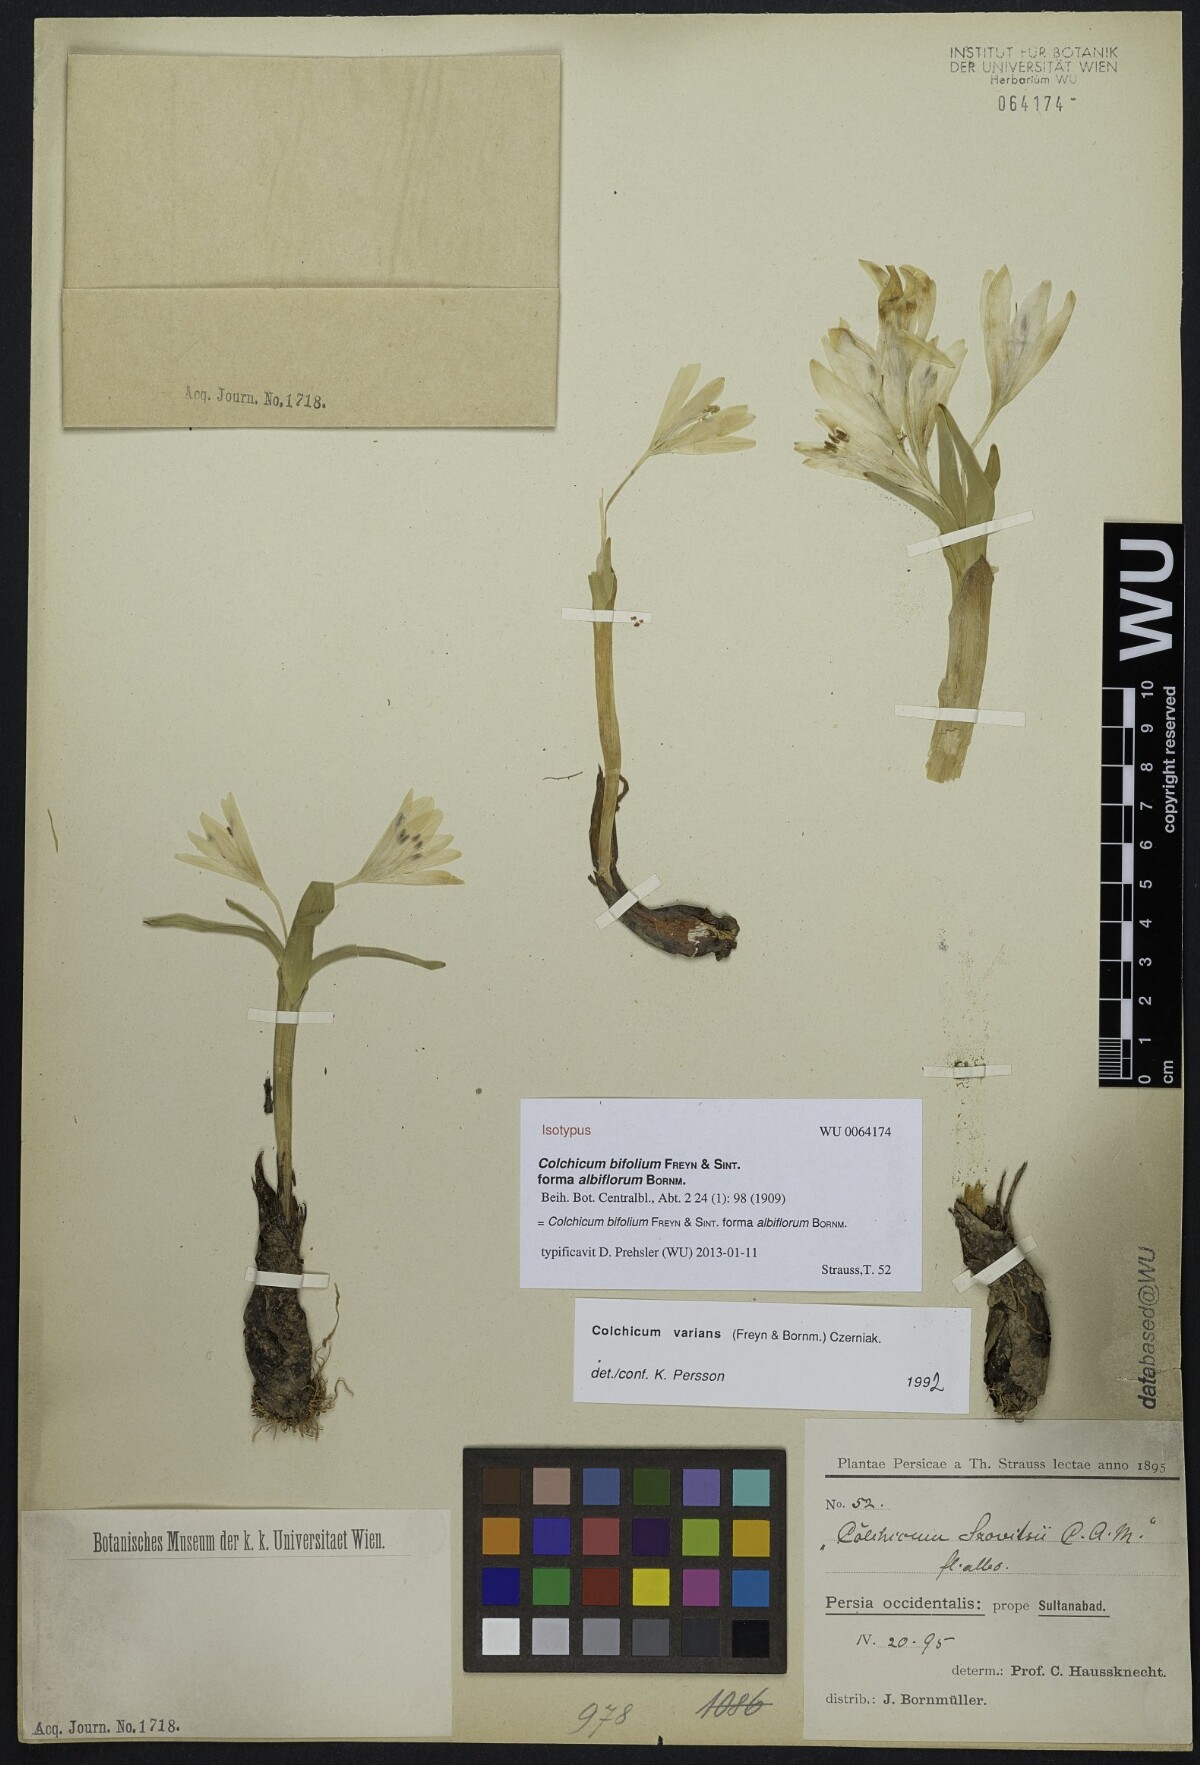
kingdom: Plantae
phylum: Tracheophyta
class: Liliopsida
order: Liliales
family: Colchicaceae
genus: Colchicum
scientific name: Colchicum szovitsii
